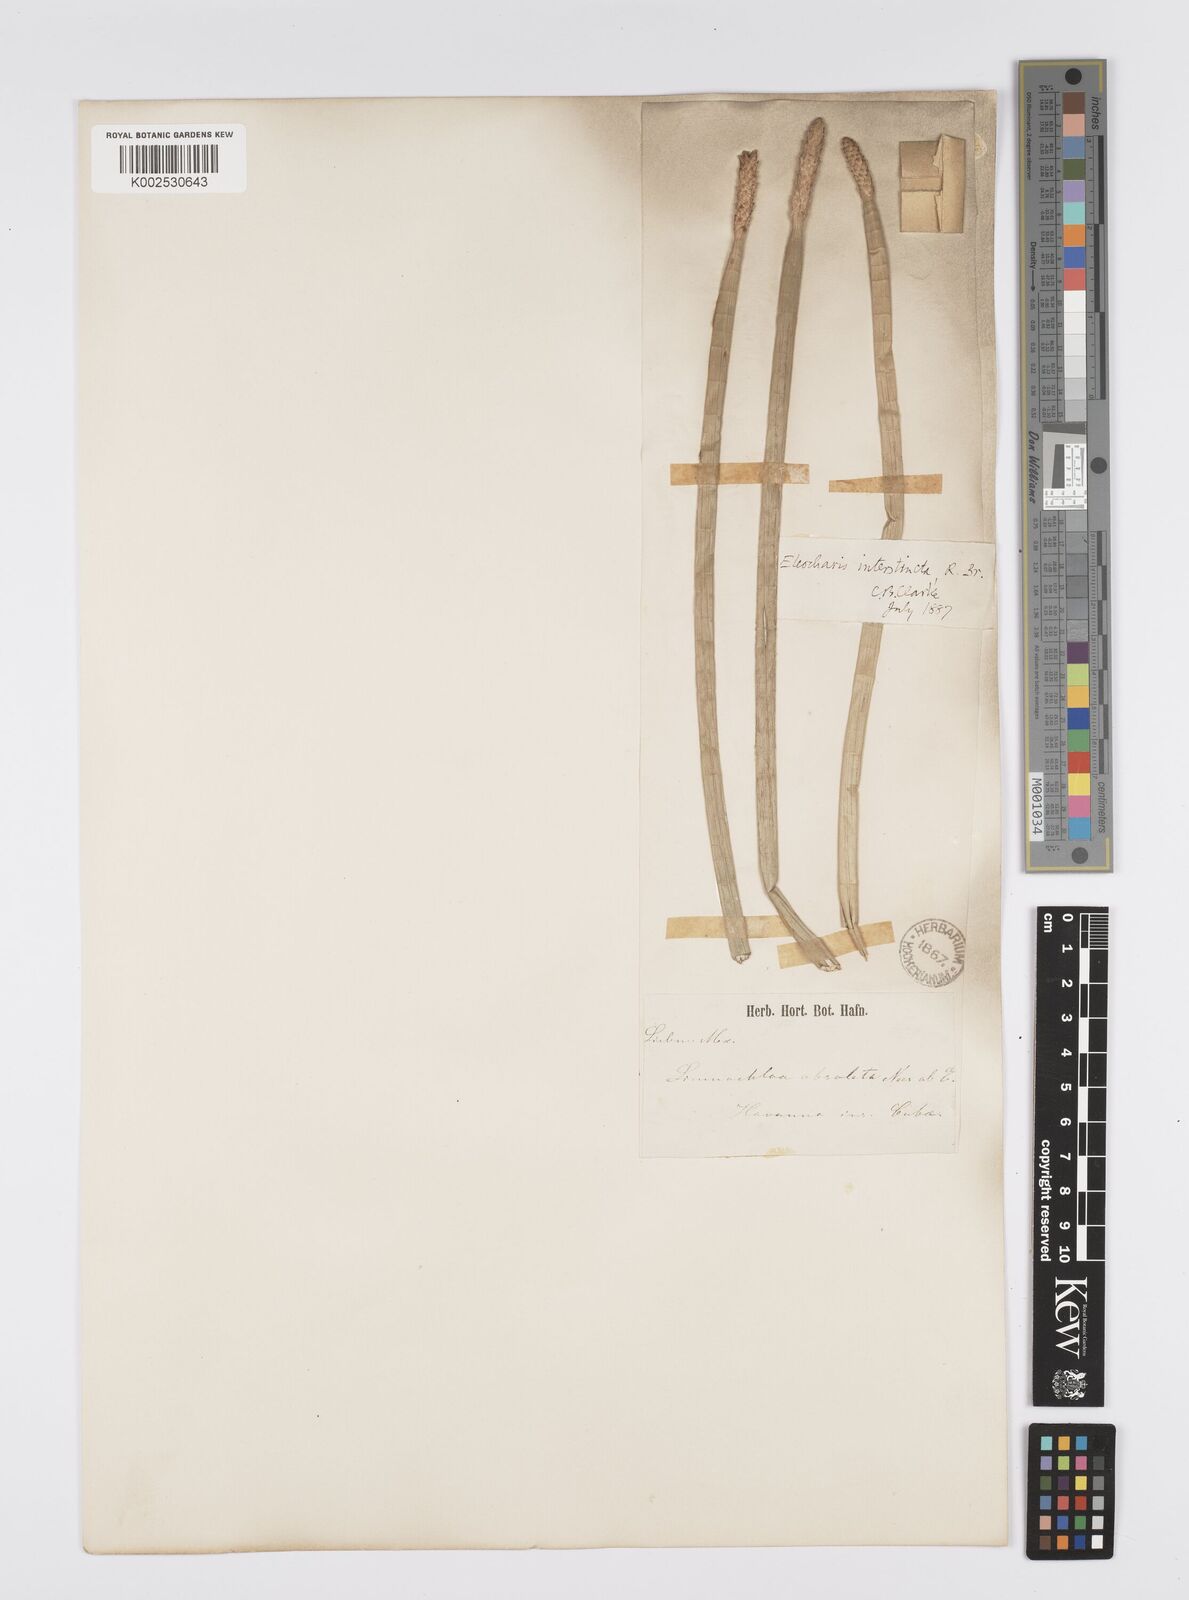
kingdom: Plantae
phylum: Tracheophyta
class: Liliopsida
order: Poales
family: Cyperaceae
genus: Eleocharis
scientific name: Eleocharis interstincta
